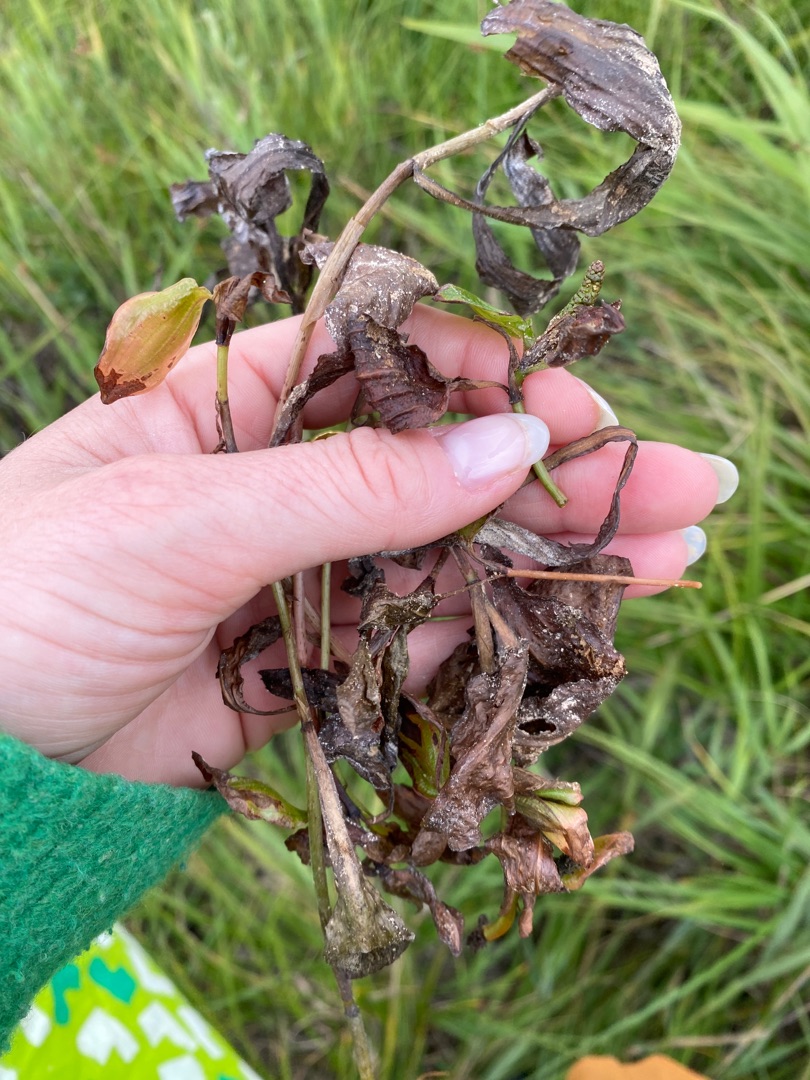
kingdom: Plantae
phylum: Tracheophyta
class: Liliopsida
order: Alismatales
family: Potamogetonaceae
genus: Potamogeton
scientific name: Potamogeton coloratus
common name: Vejbred-vandaks
